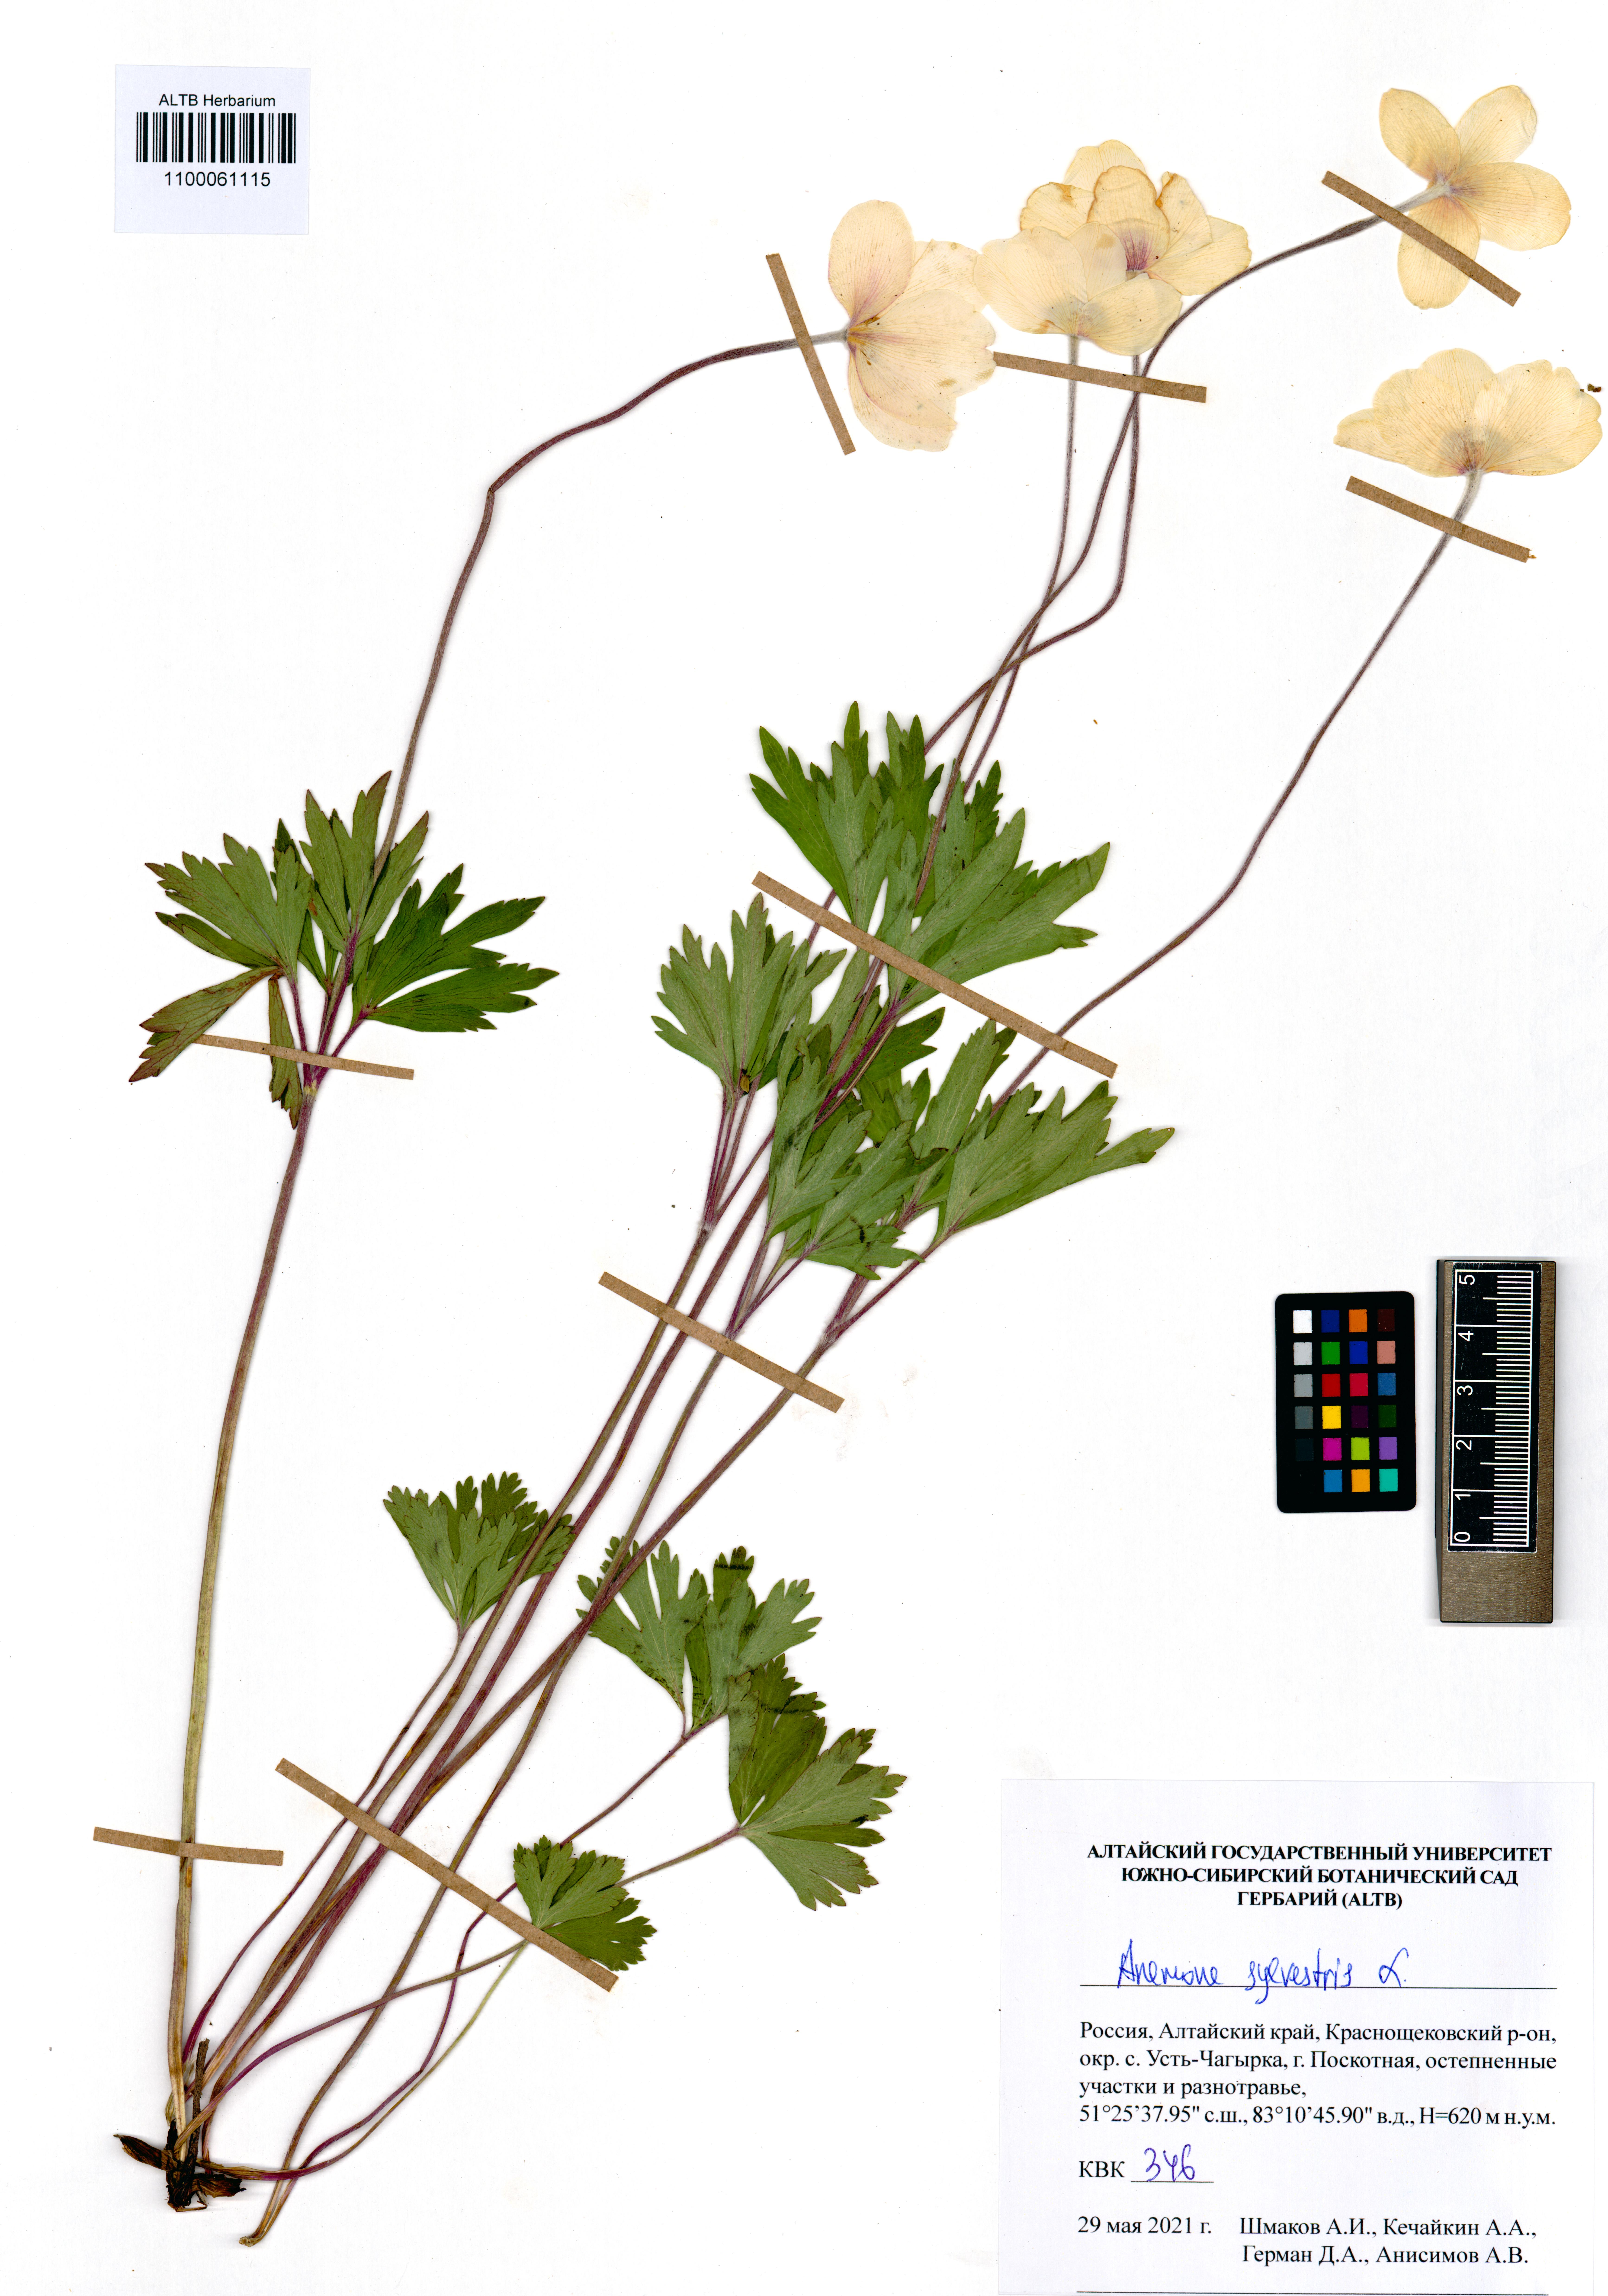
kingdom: Plantae
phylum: Tracheophyta
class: Magnoliopsida
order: Ranunculales
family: Ranunculaceae
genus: Anemone
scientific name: Anemone sylvestris
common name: Snowdrop anemone
